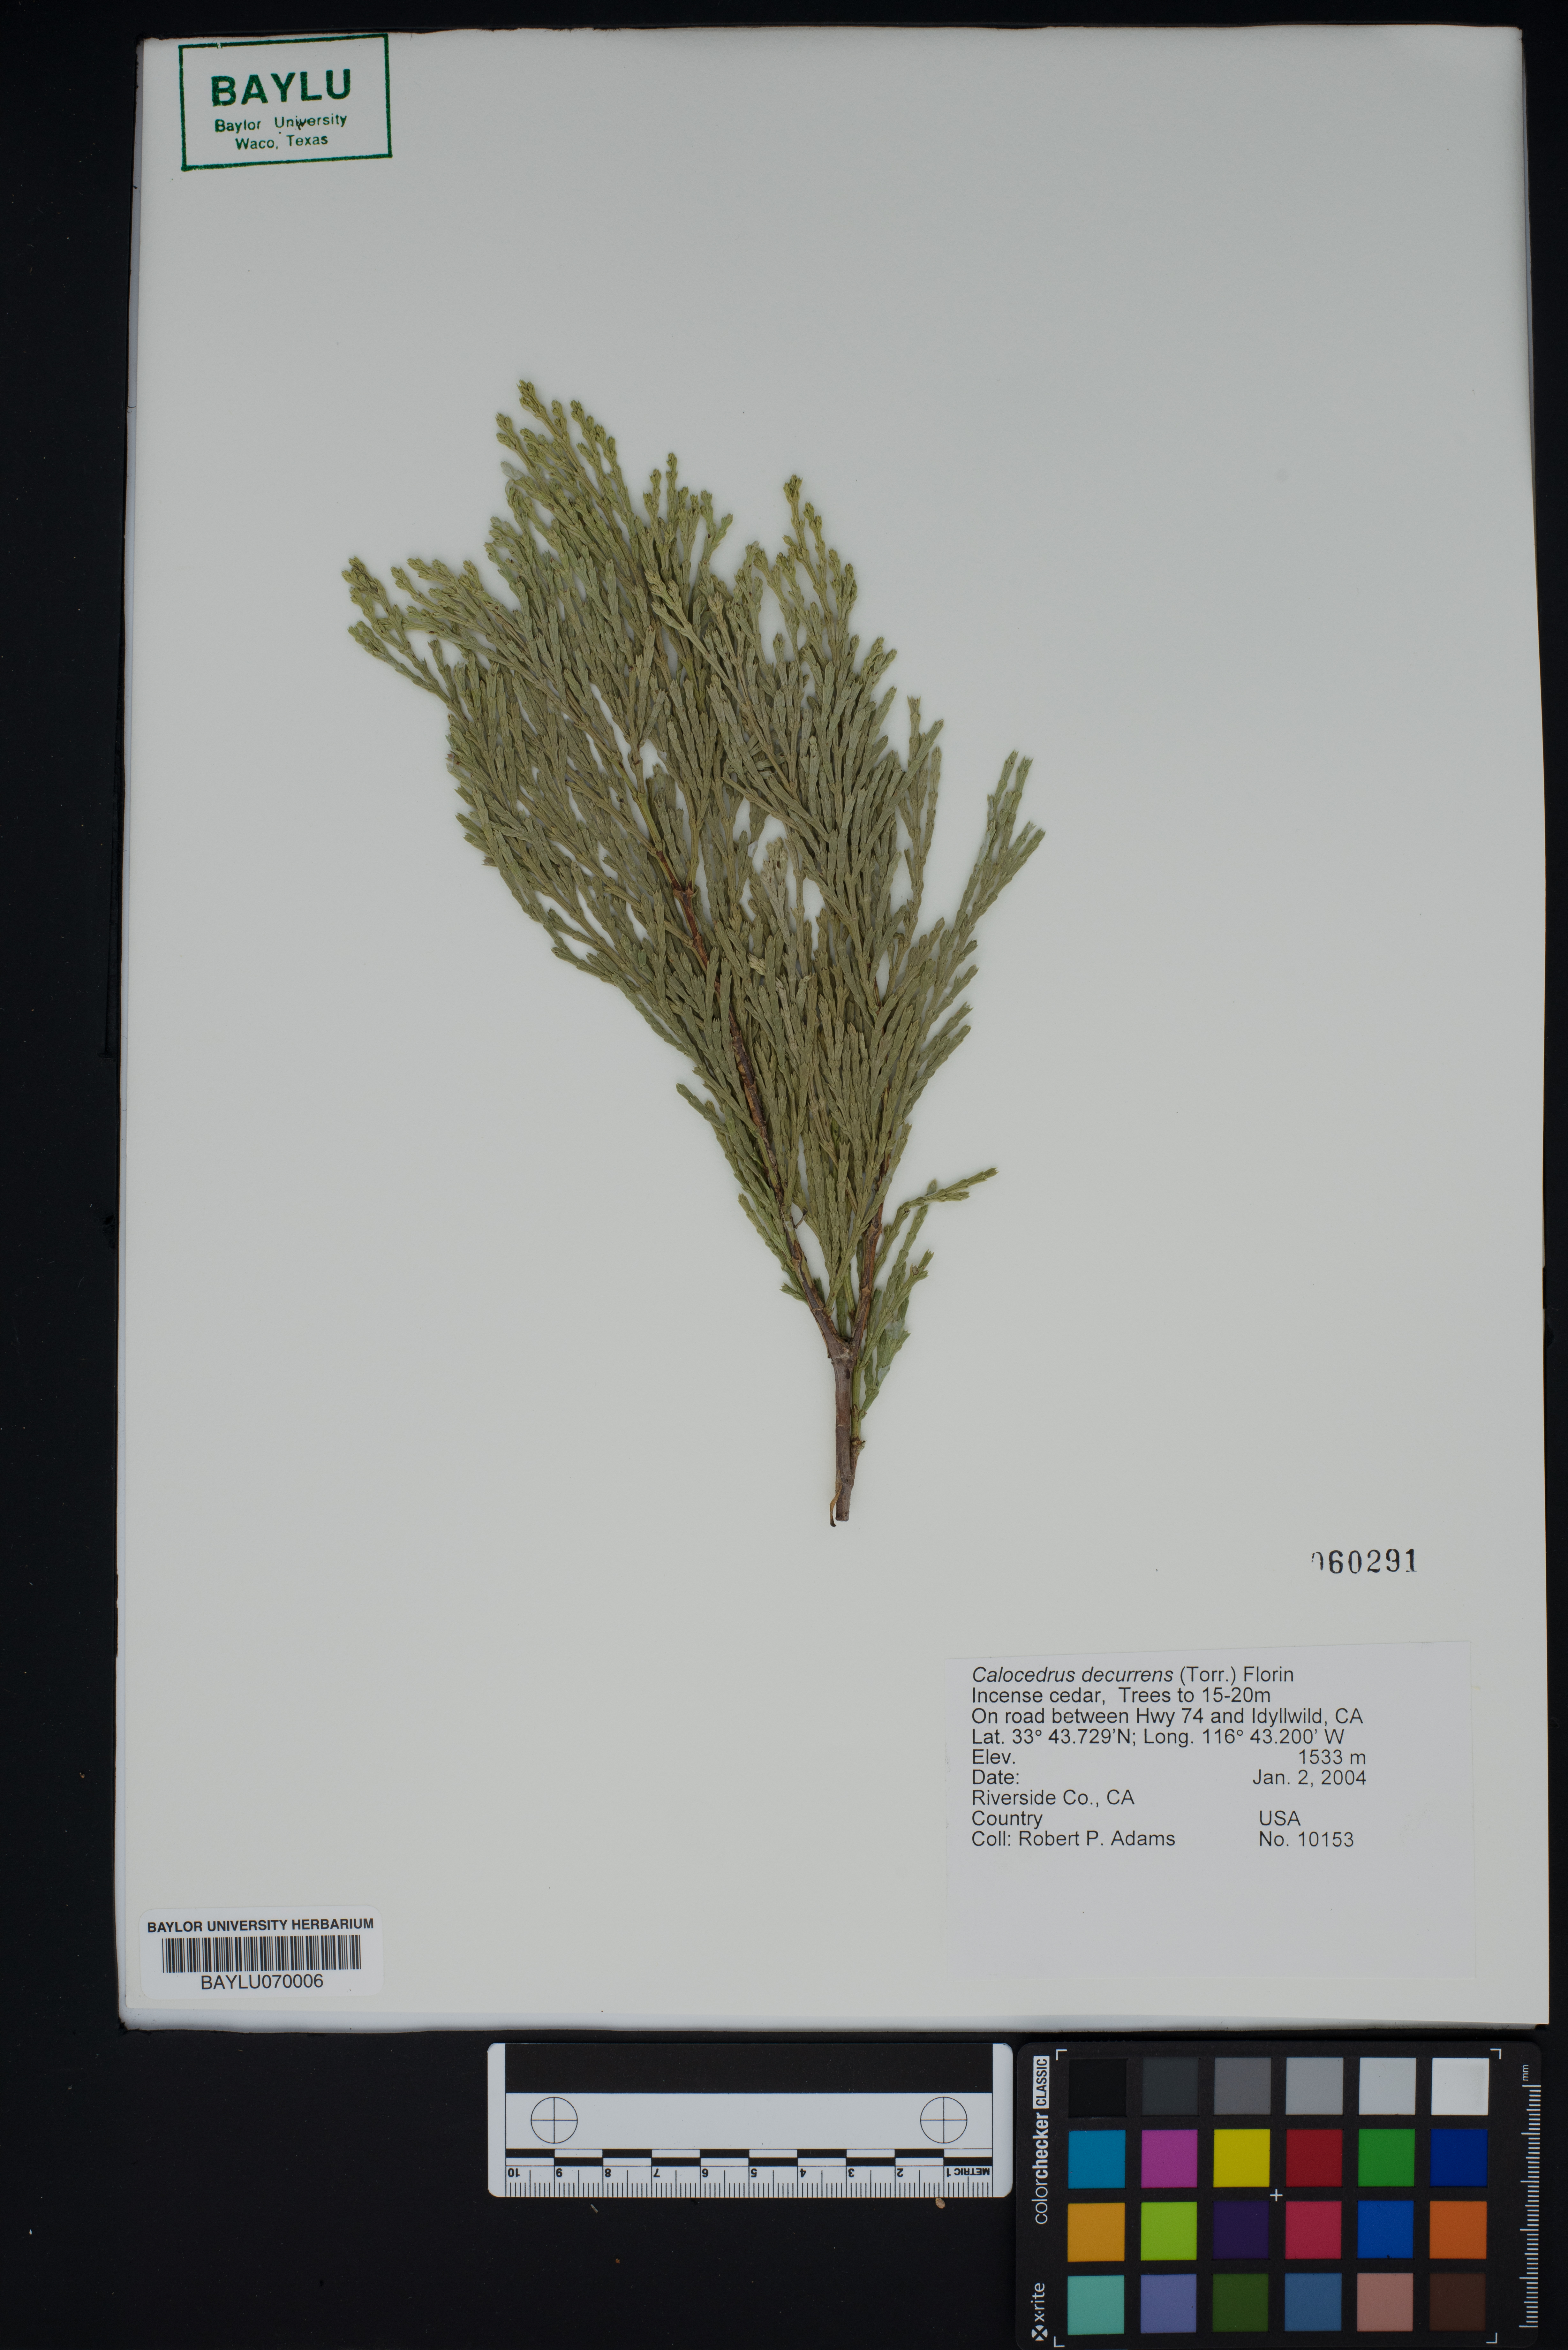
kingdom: Plantae
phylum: Tracheophyta
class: Pinopsida
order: Pinales
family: Cupressaceae
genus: Calocedrus
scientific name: Calocedrus decurrens
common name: Californian incense-cedar
